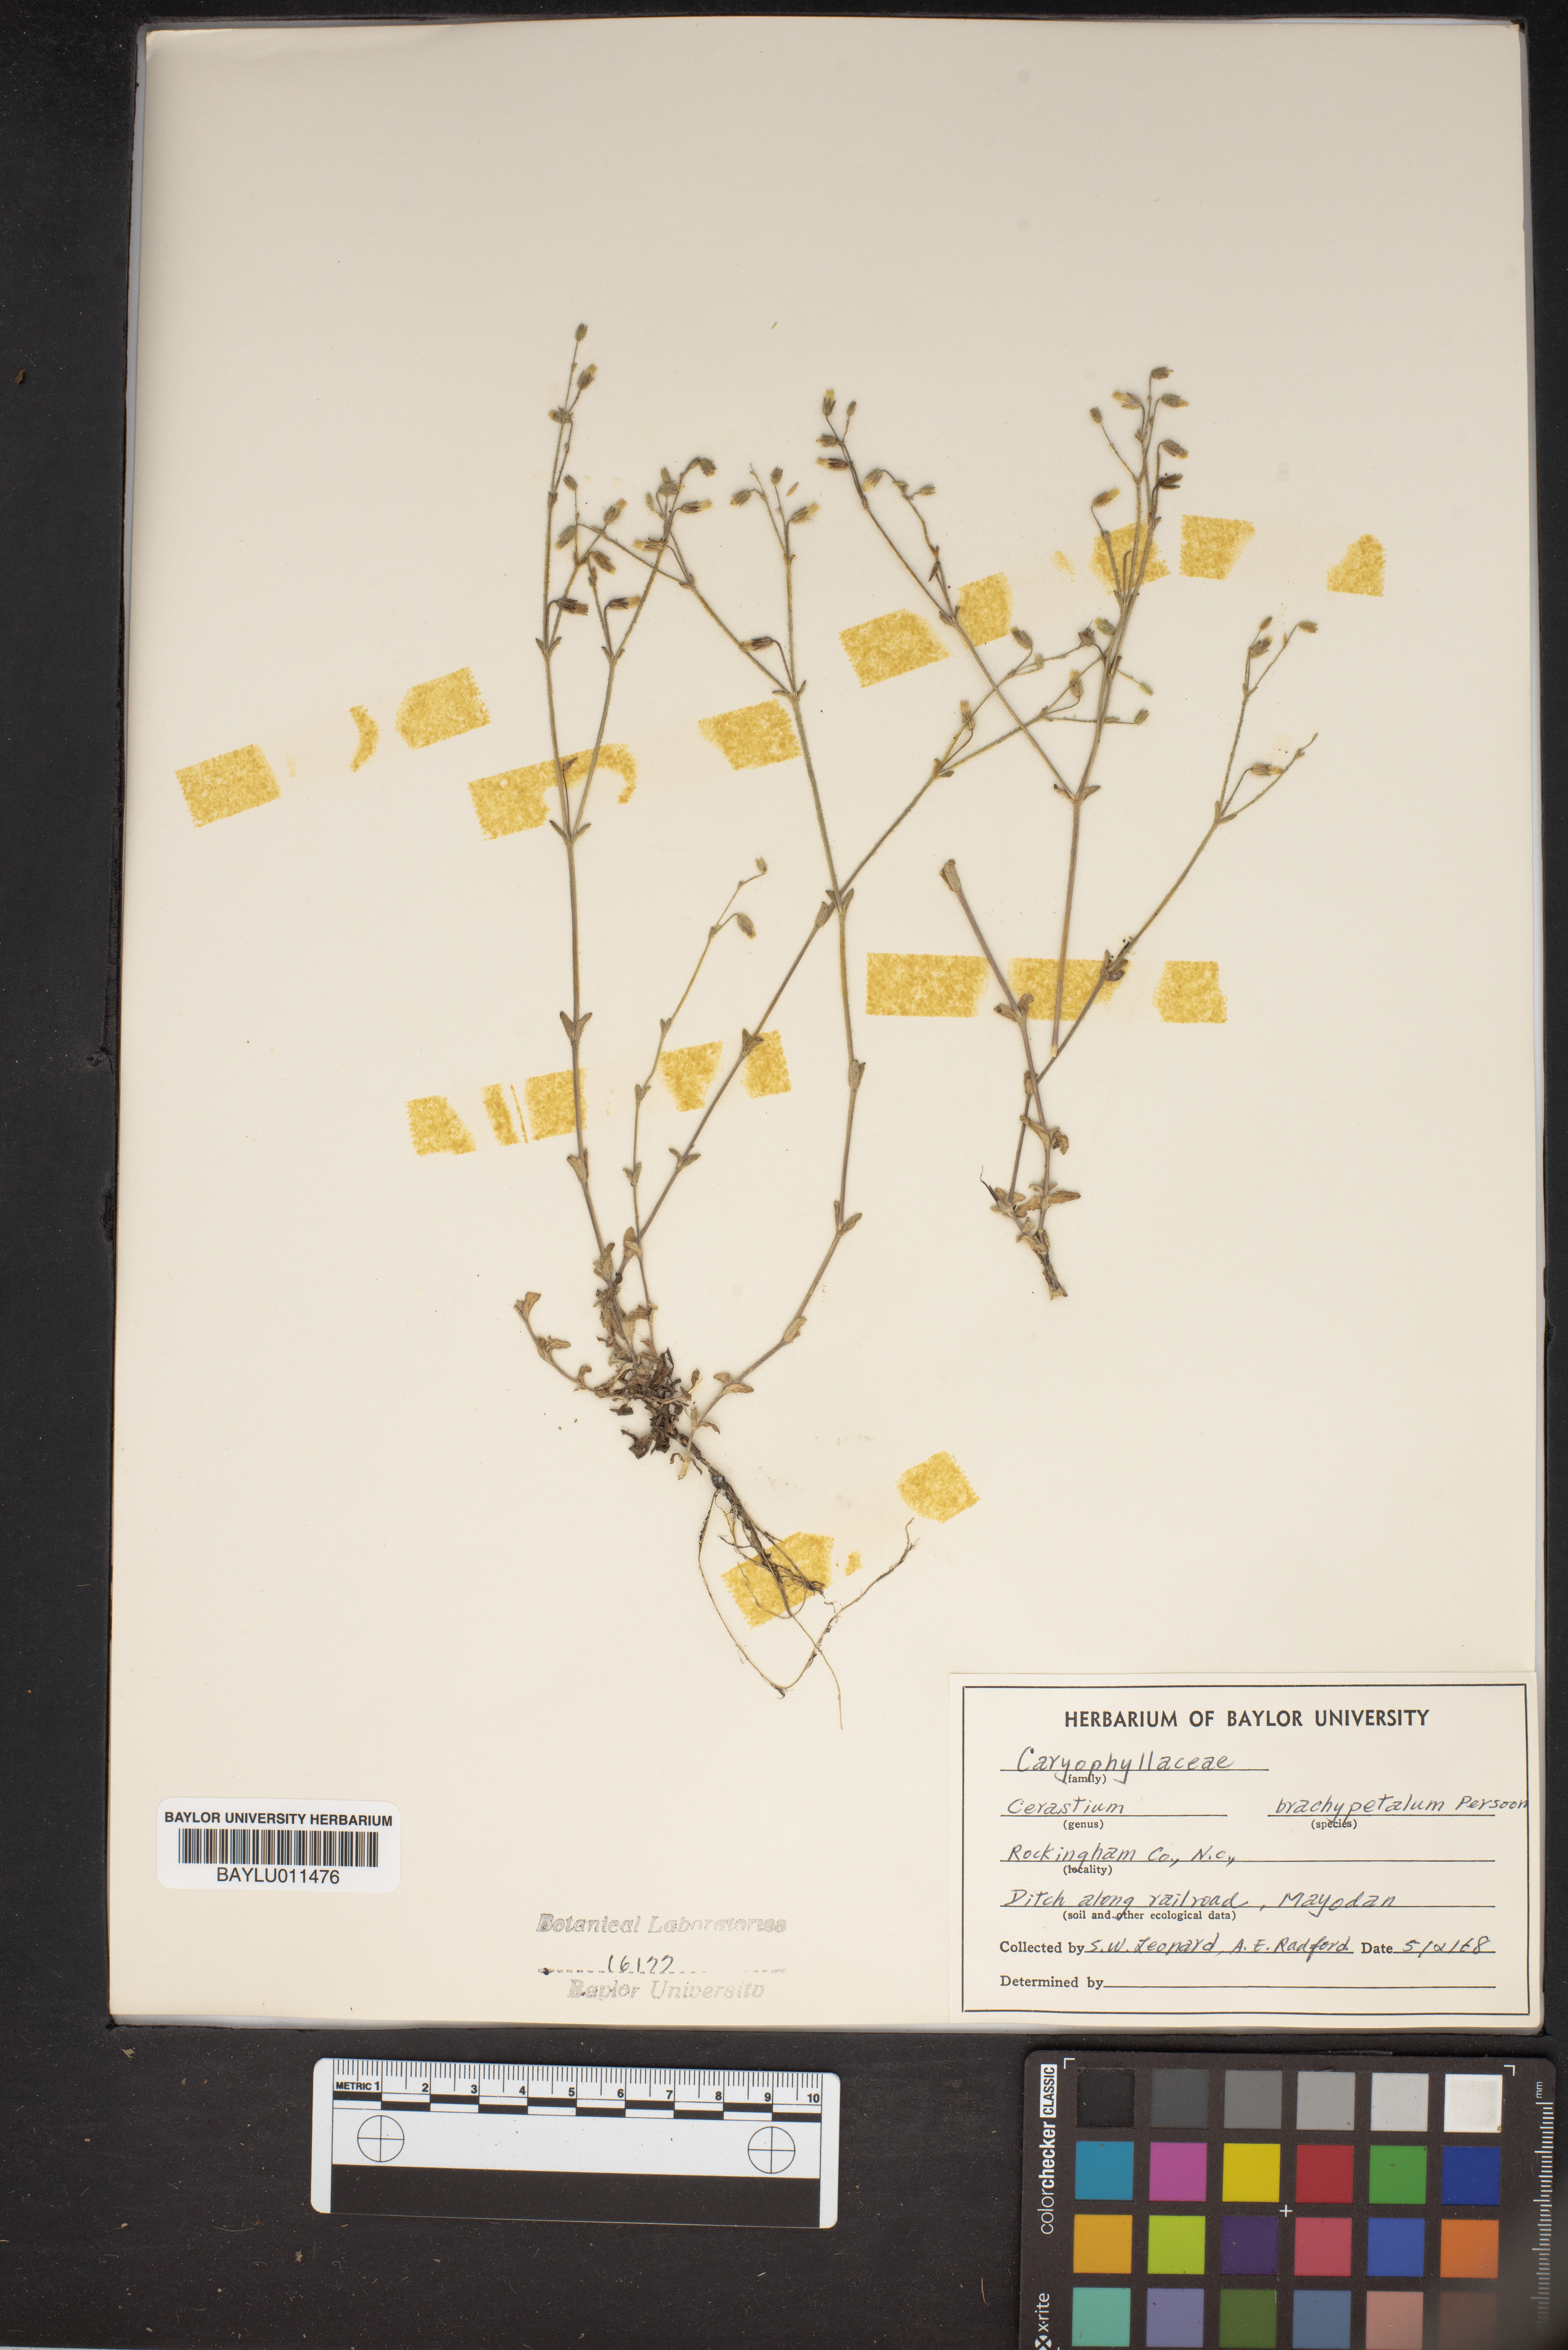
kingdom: Plantae
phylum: Tracheophyta
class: Magnoliopsida
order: Caryophyllales
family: Caryophyllaceae
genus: Cerastium
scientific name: Cerastium brachypetalum
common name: Grey mouse-ear
